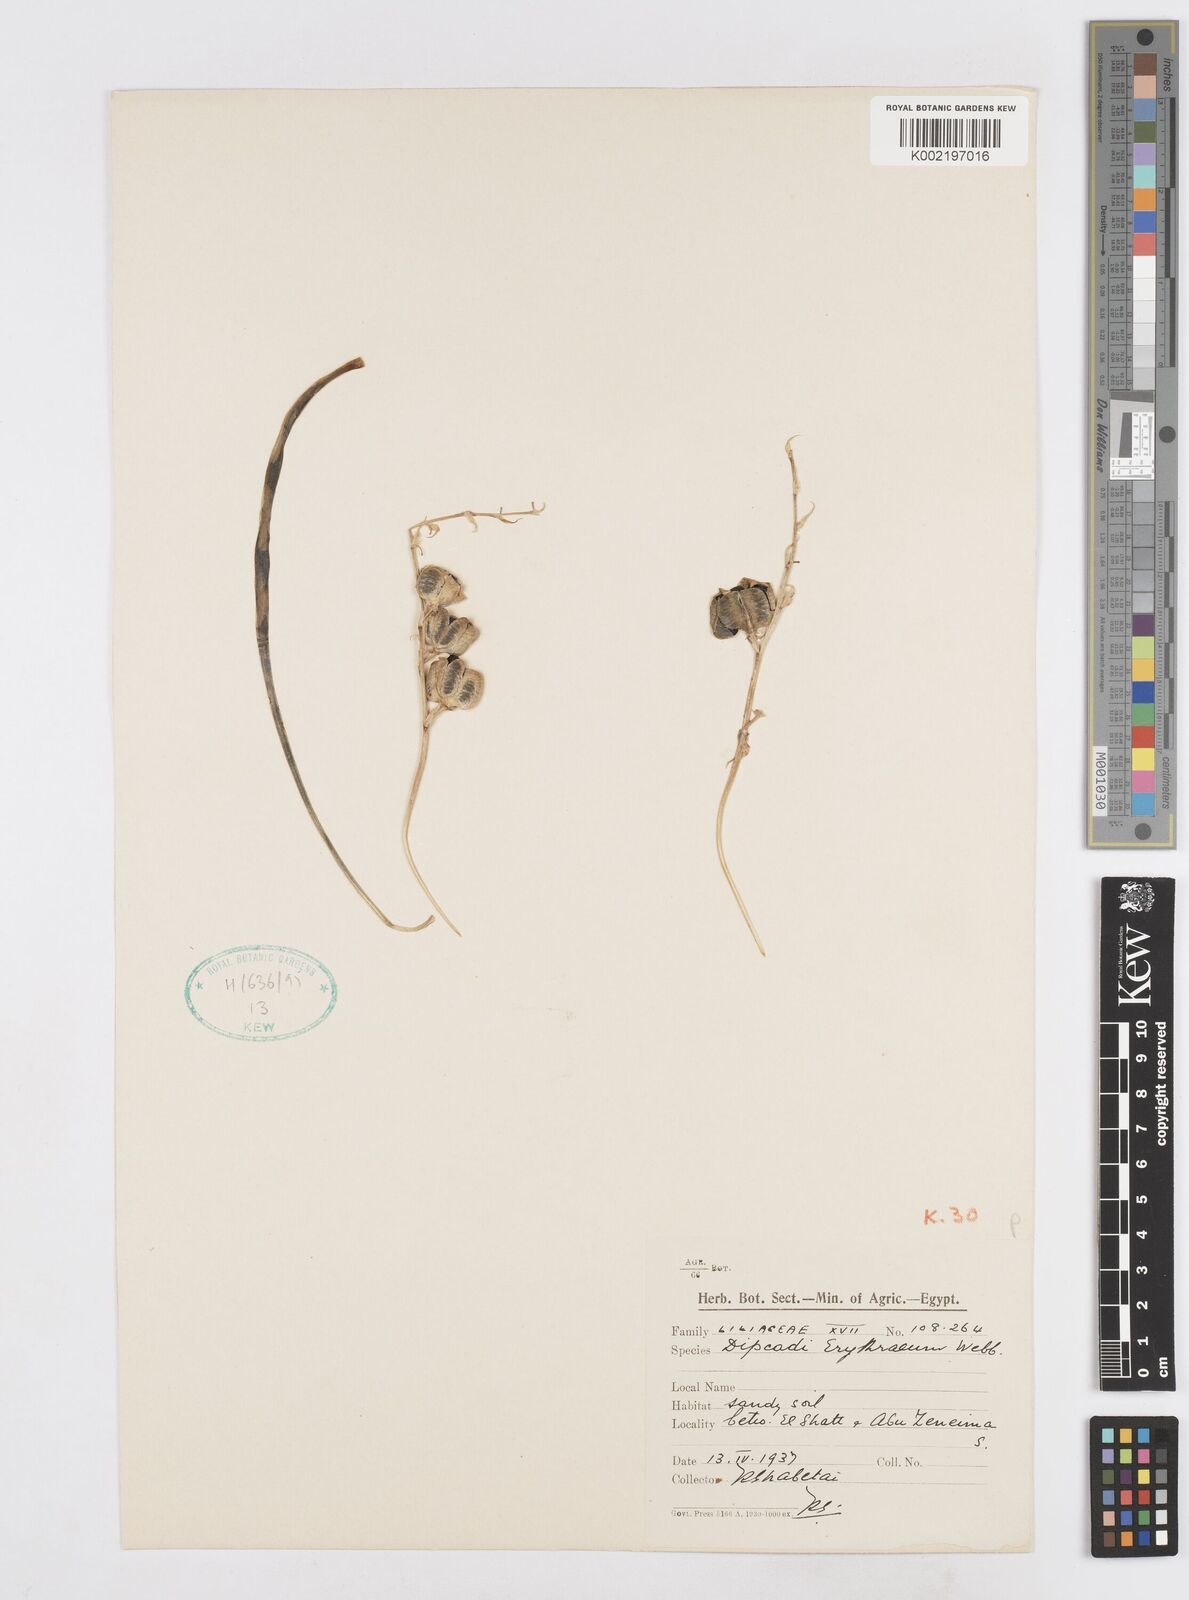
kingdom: Plantae
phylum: Tracheophyta
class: Liliopsida
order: Asparagales
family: Asparagaceae
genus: Dipcadi
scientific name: Dipcadi erythraeum
